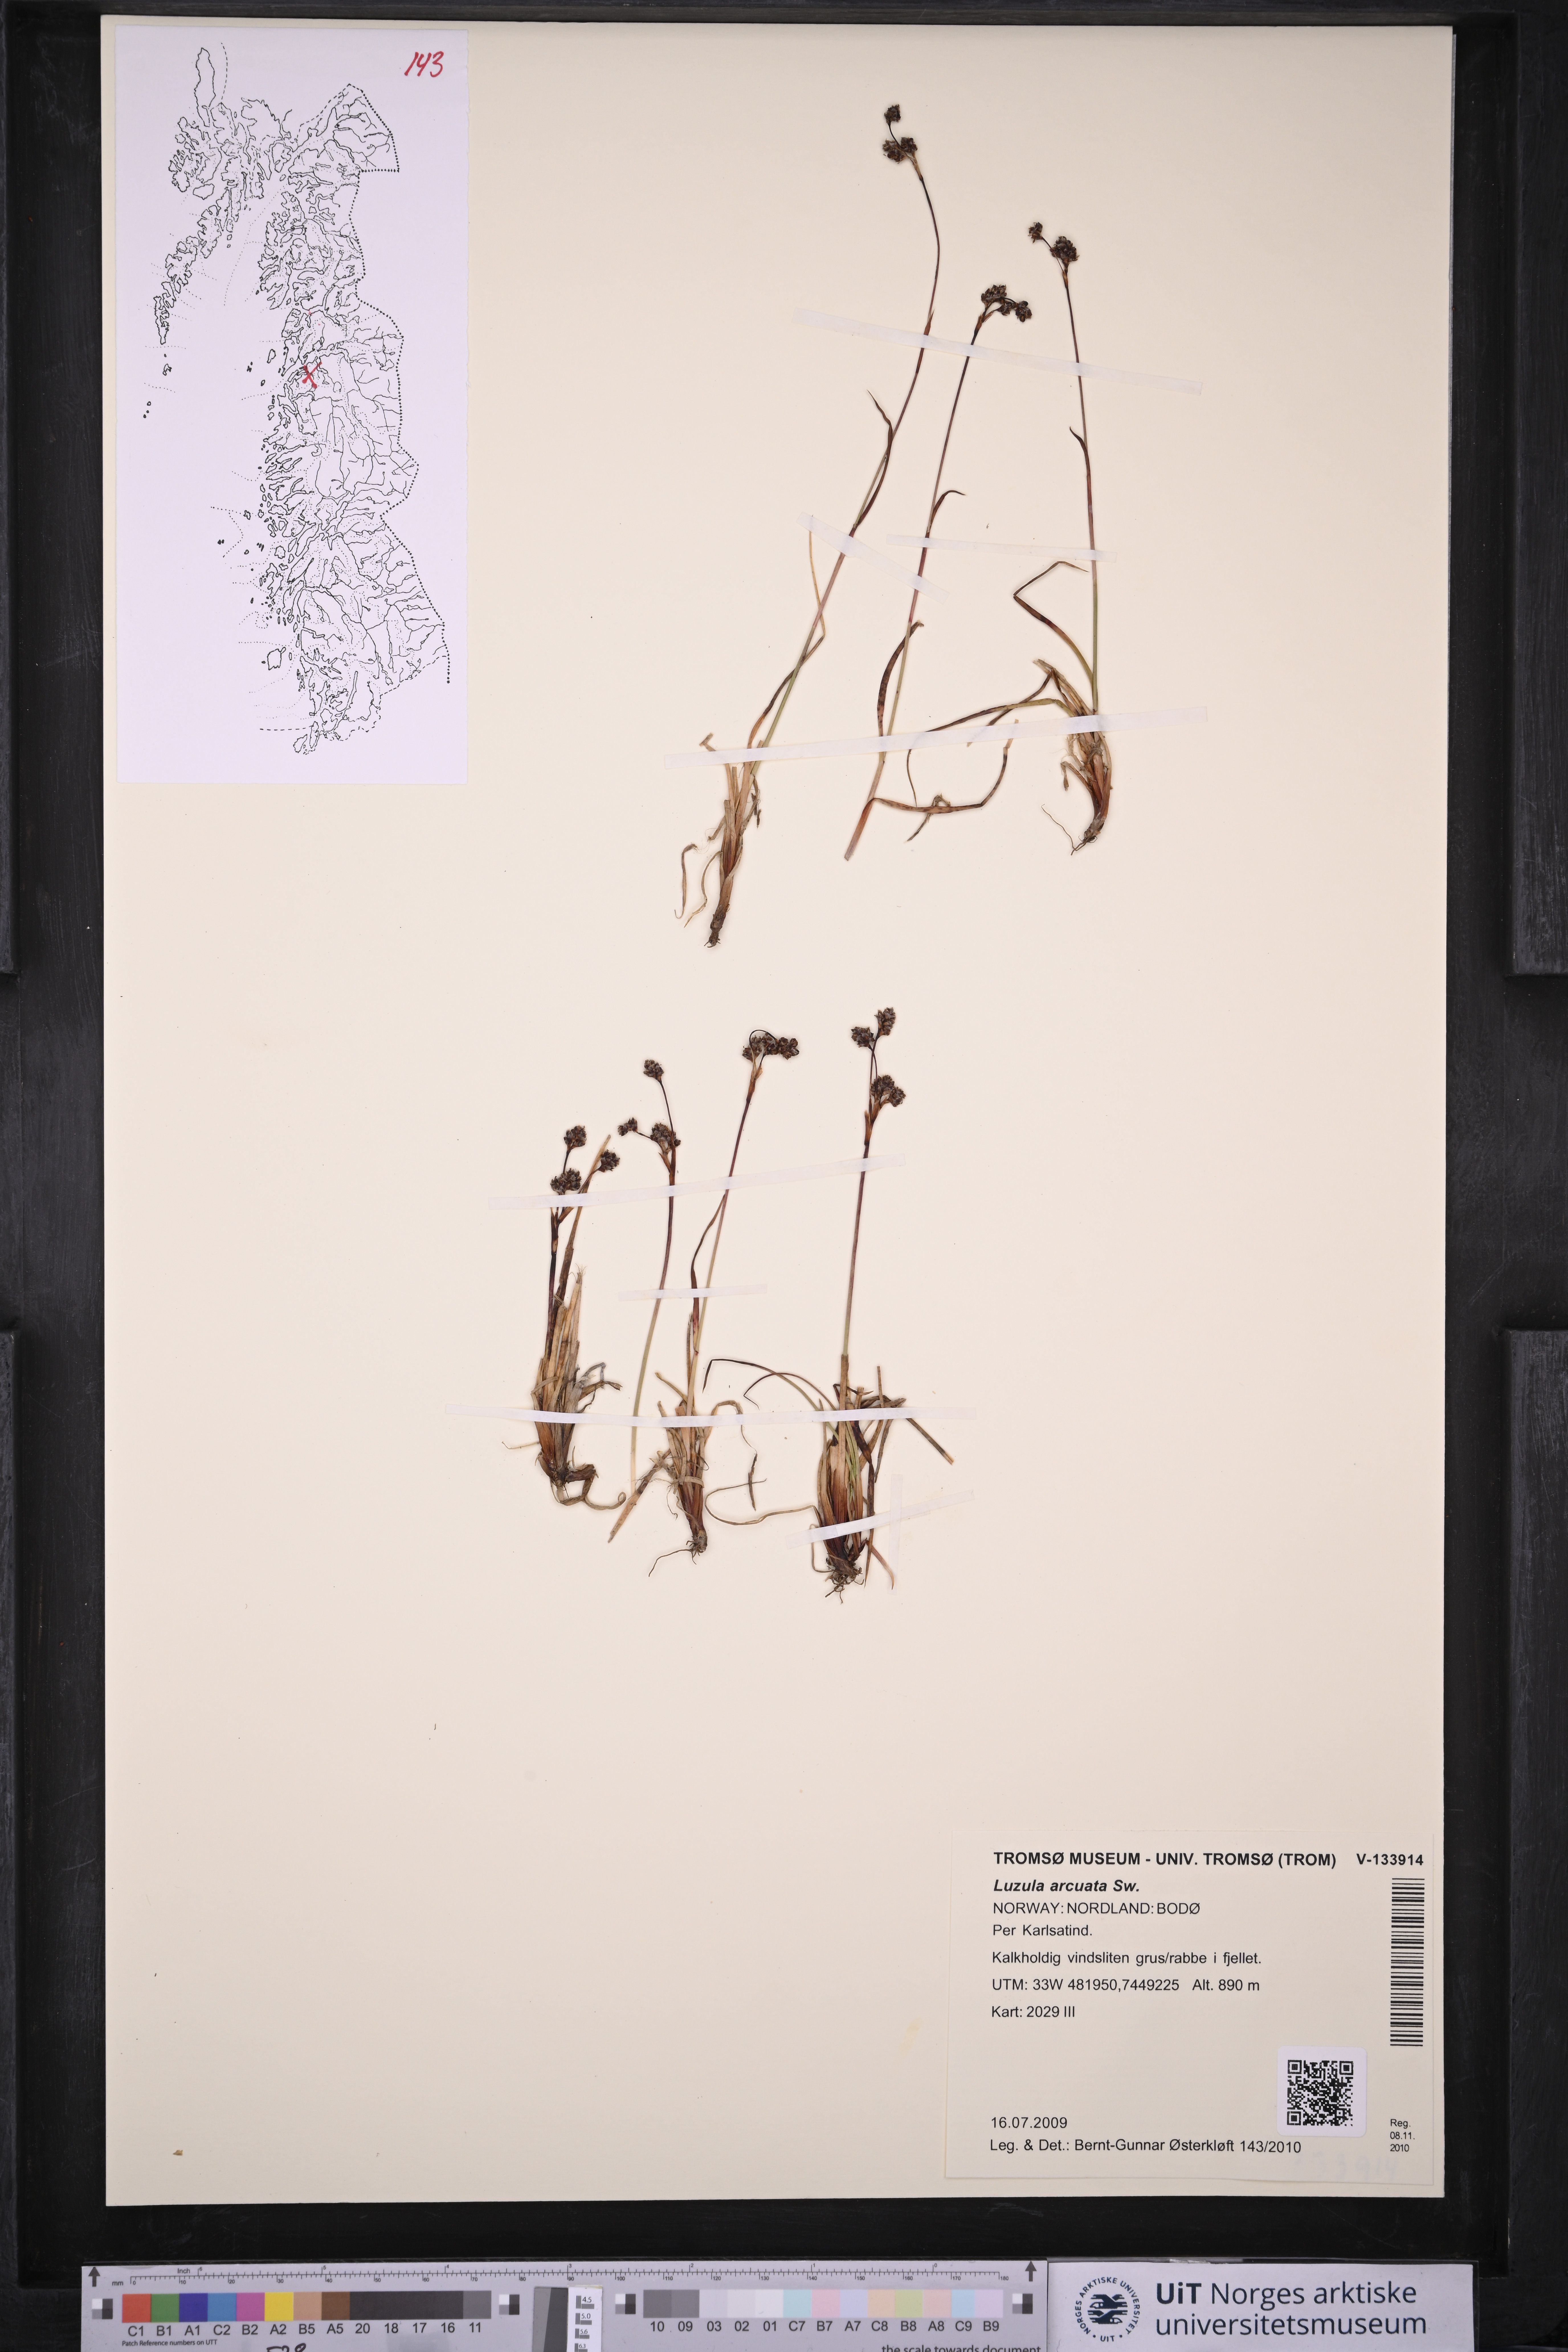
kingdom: Plantae
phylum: Tracheophyta
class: Liliopsida
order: Poales
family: Juncaceae
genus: Luzula
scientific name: Luzula arcuata
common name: Curved wood-rush
